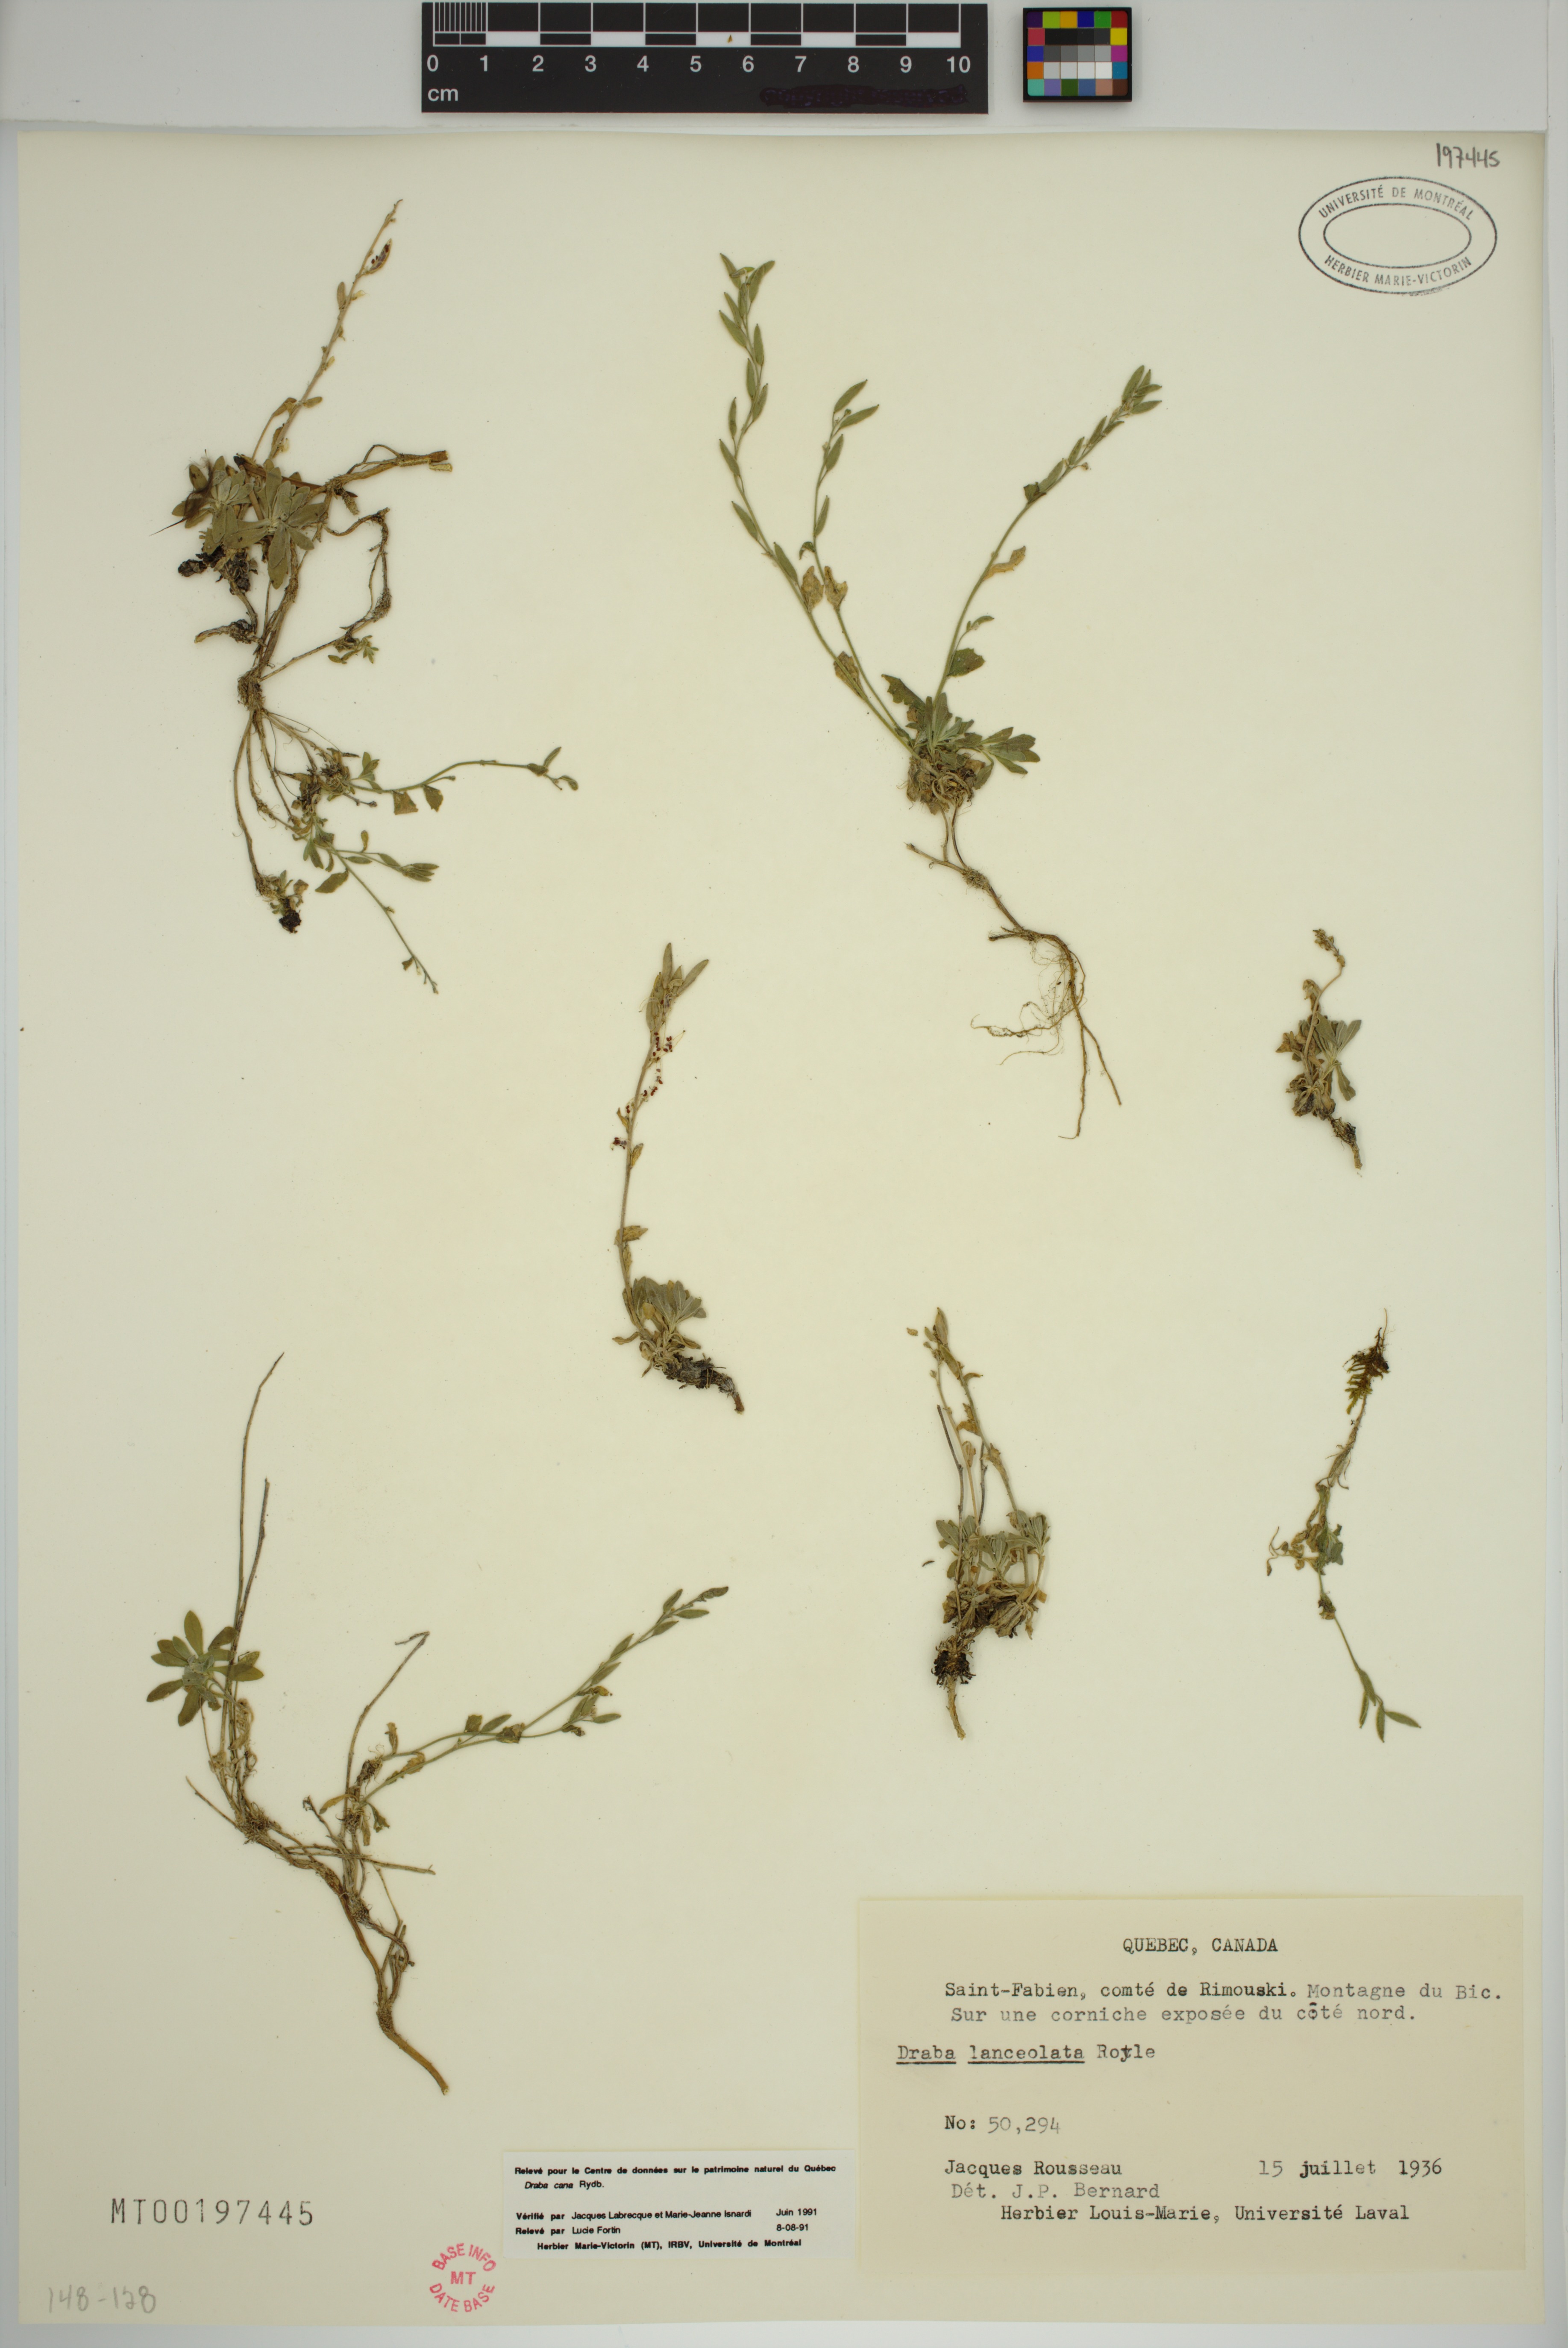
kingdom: Plantae
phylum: Tracheophyta
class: Magnoliopsida
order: Brassicales
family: Brassicaceae
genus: Draba
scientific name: Draba cana
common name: Hoary draba
